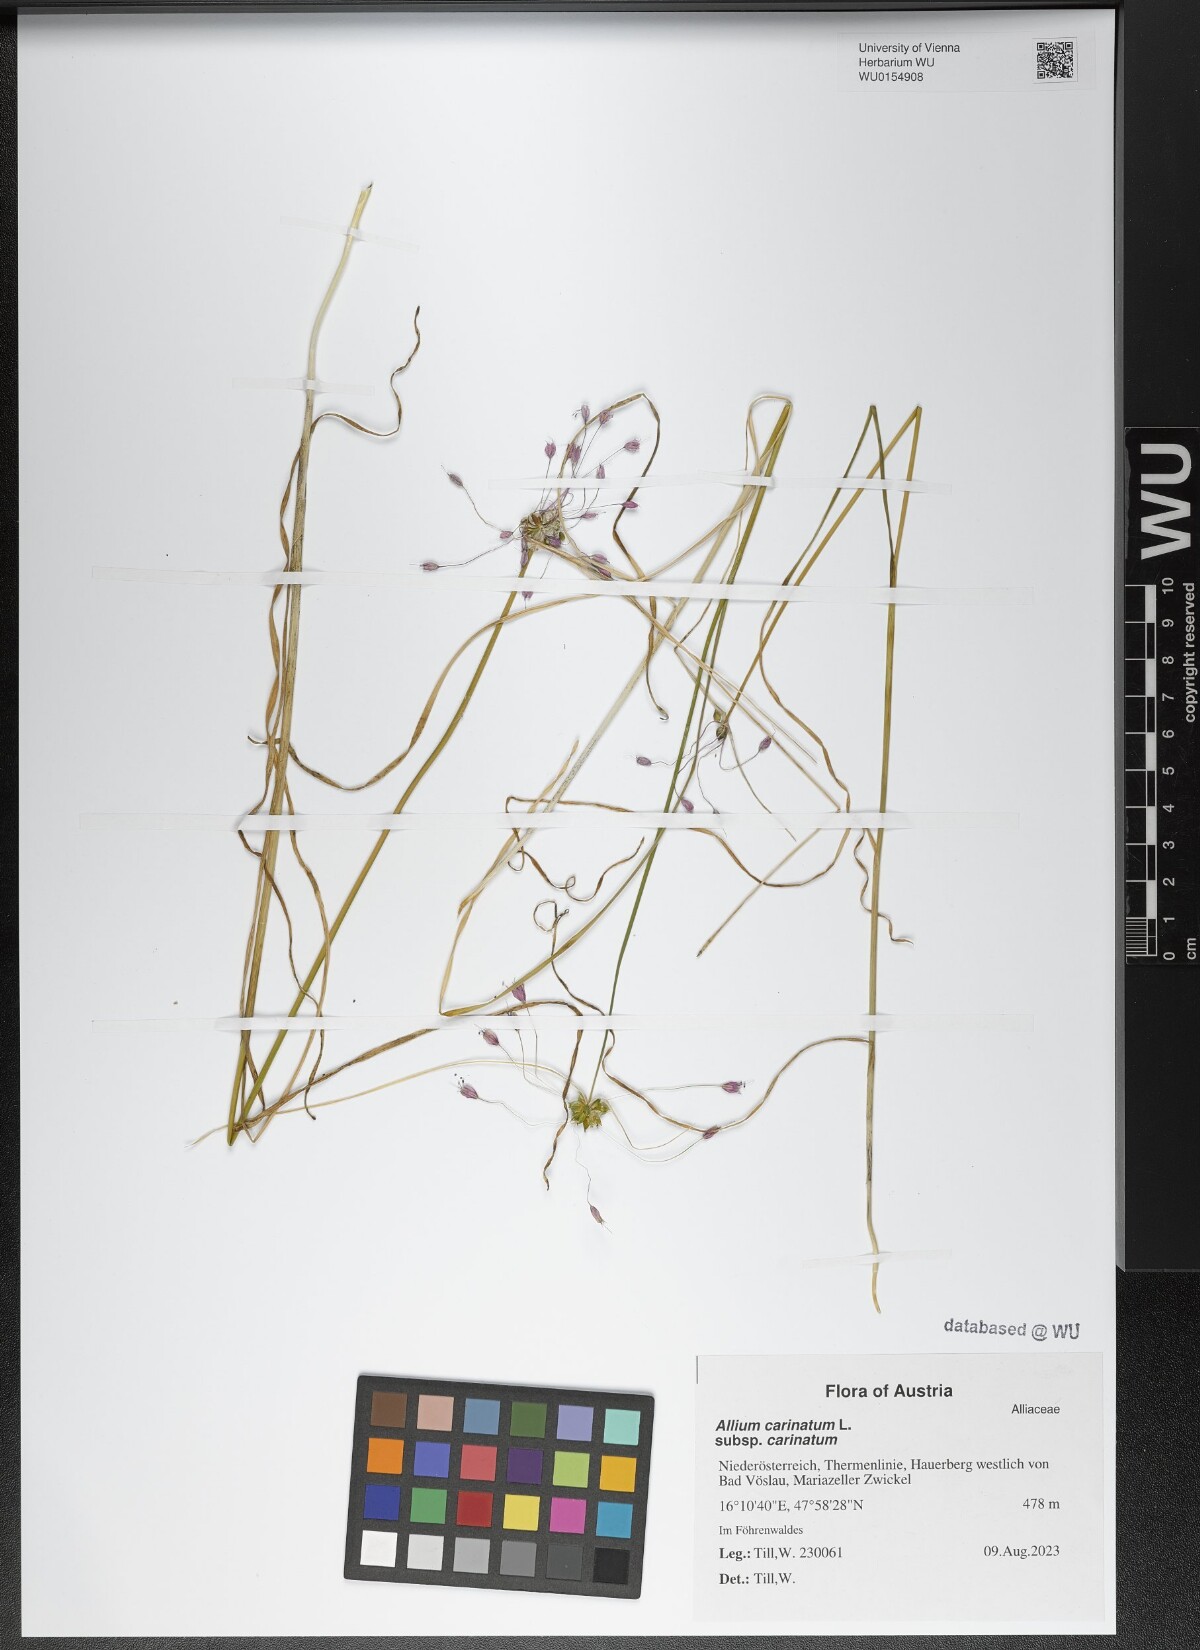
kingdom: Plantae
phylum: Tracheophyta
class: Liliopsida
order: Asparagales
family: Amaryllidaceae
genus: Allium
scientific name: Allium carinatum
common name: Keeled garlic
